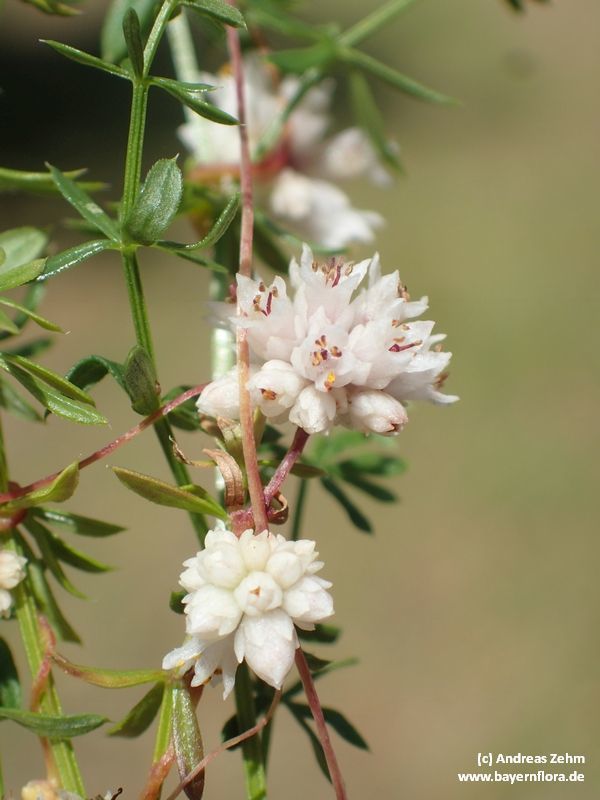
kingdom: Plantae
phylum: Tracheophyta
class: Magnoliopsida
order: Solanales
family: Convolvulaceae
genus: Cuscuta
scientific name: Cuscuta epithymum
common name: Clover dodder
